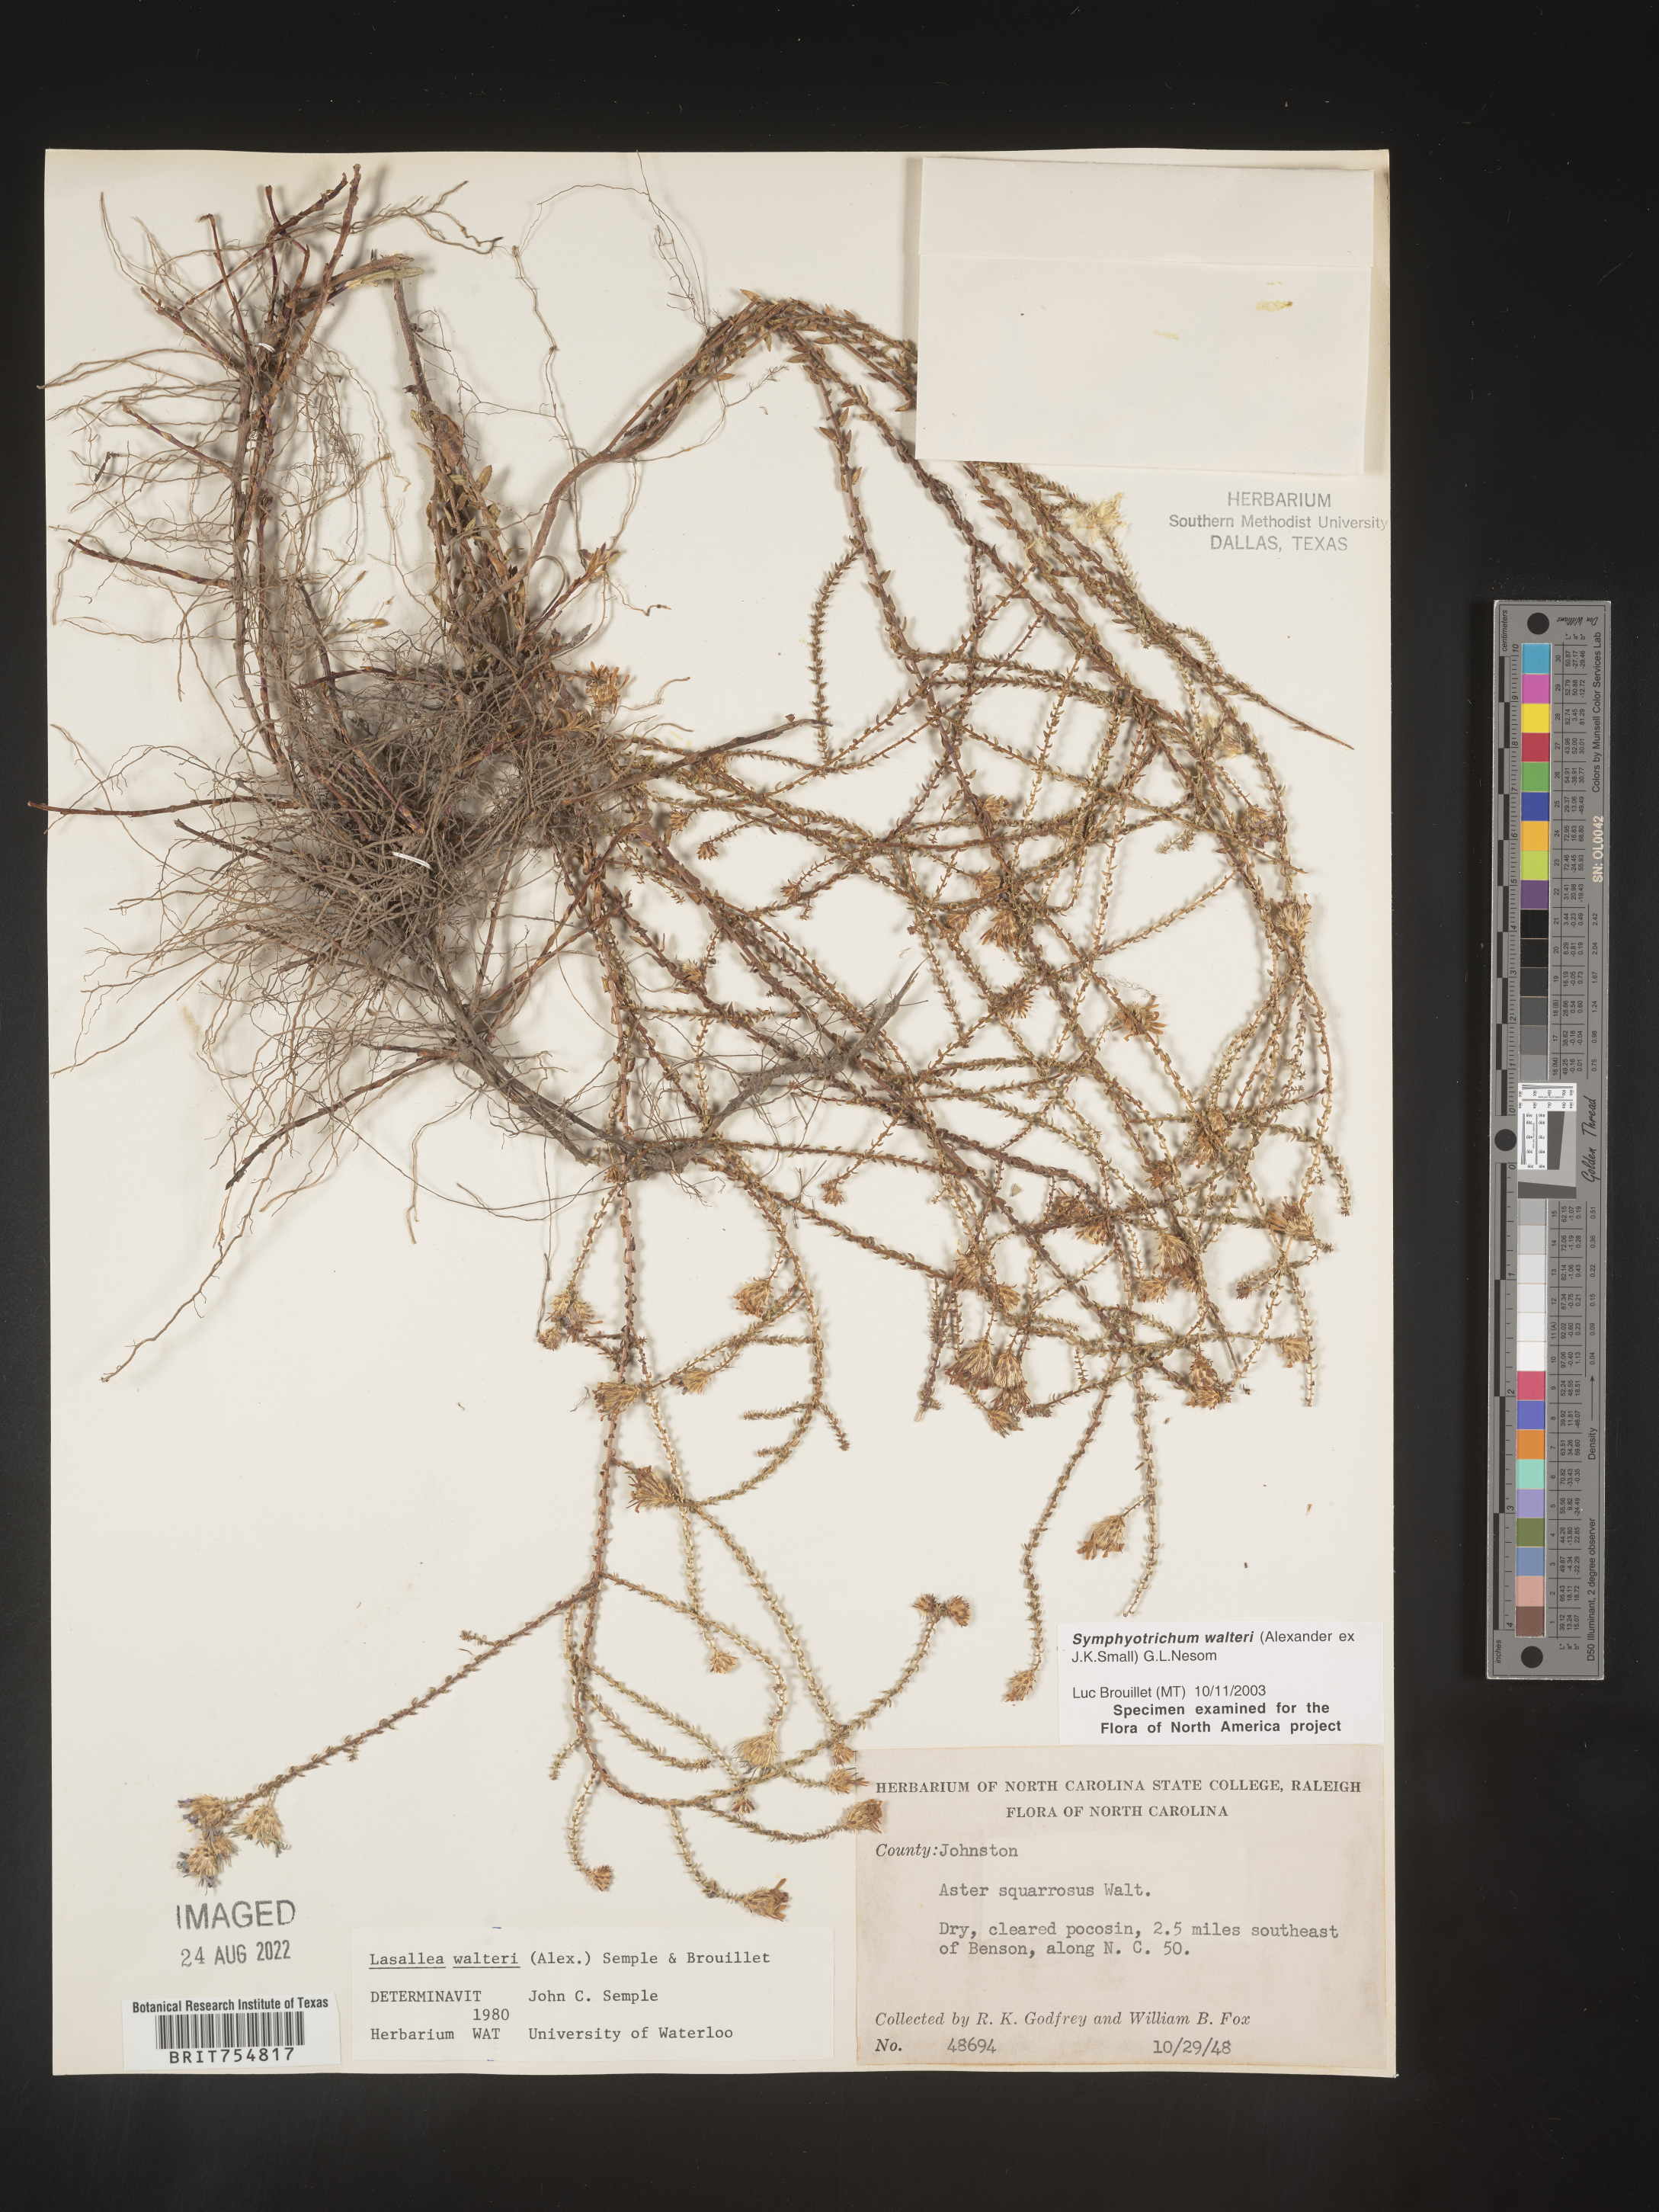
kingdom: Plantae
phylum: Tracheophyta
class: Magnoliopsida
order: Asterales
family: Asteraceae
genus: Symphyotrichum
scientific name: Symphyotrichum walteri
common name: Walter's aster
